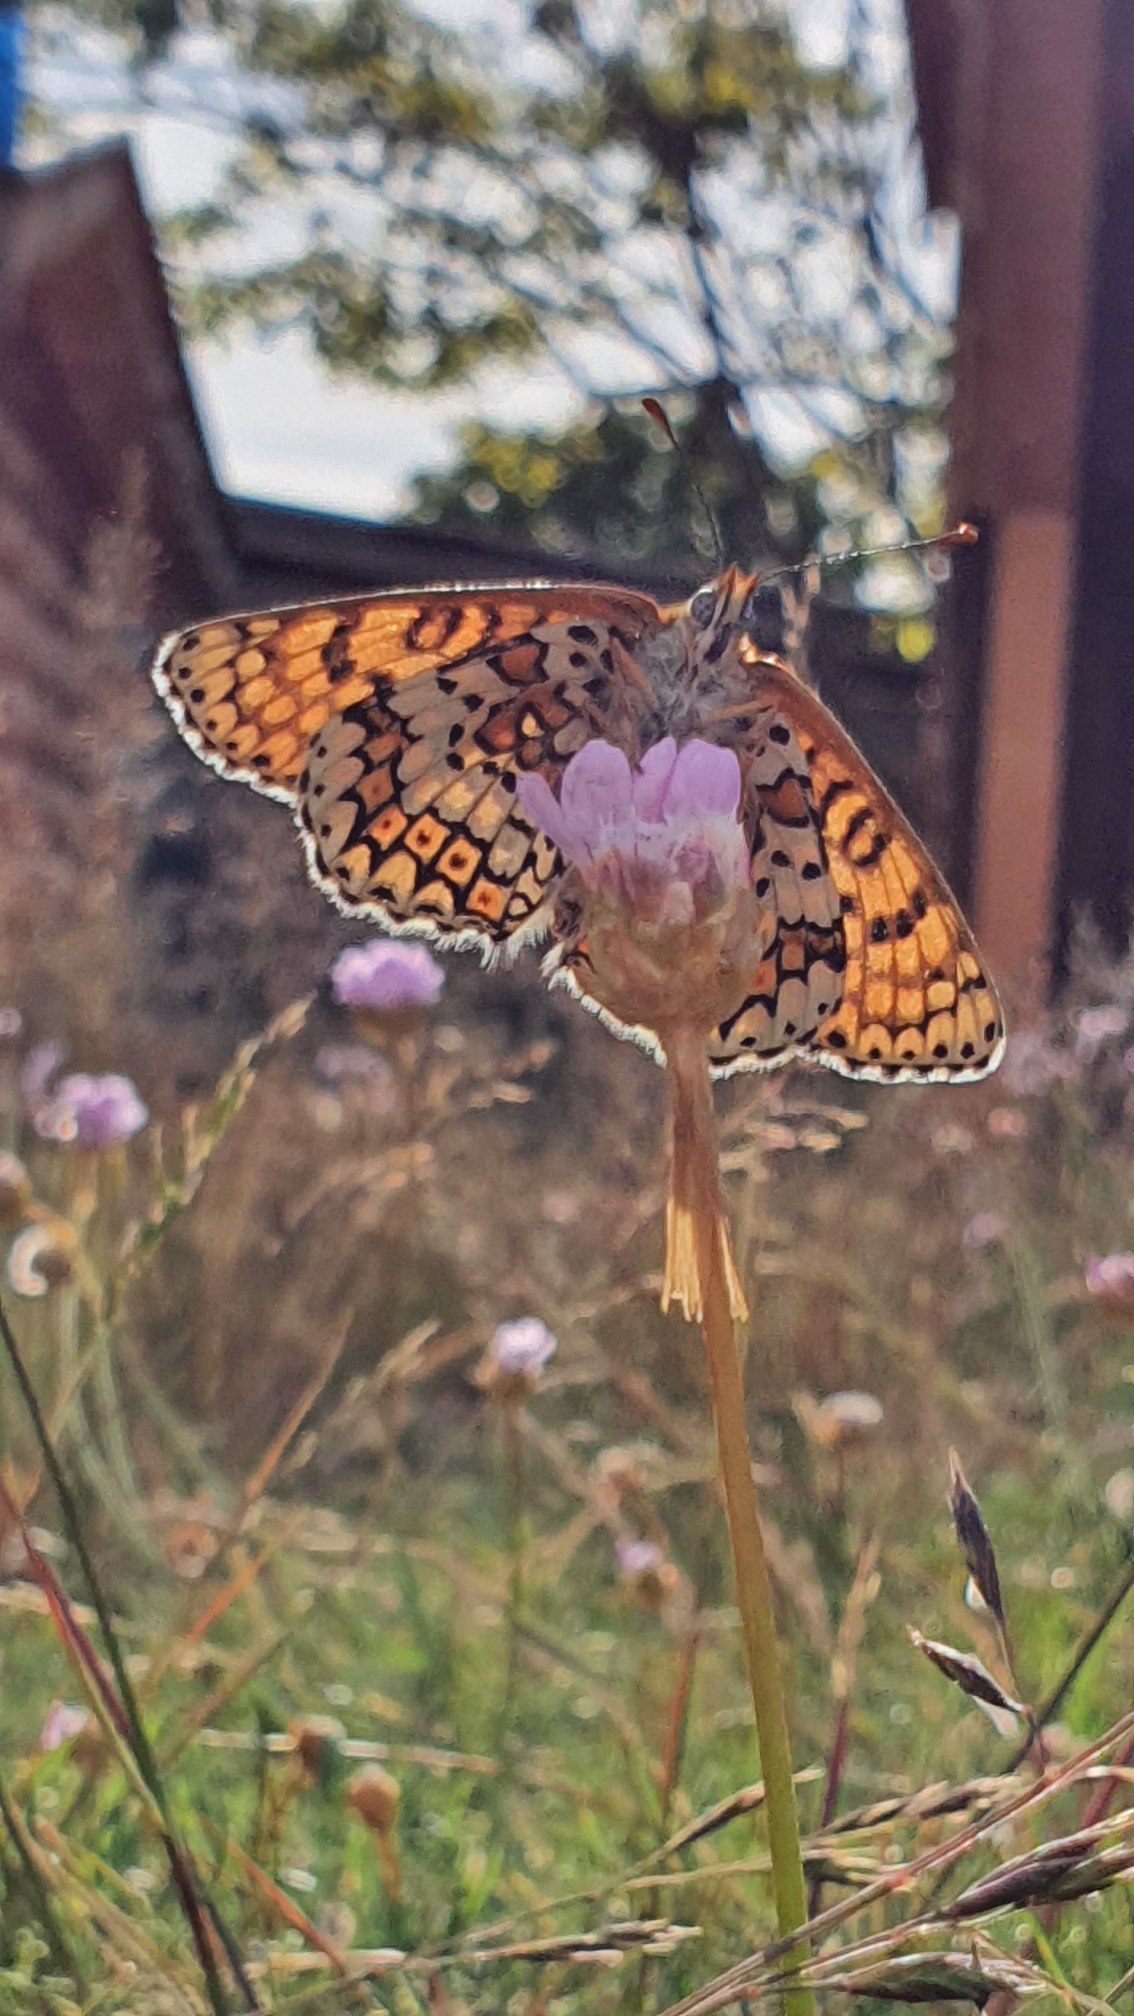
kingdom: Animalia
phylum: Arthropoda
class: Insecta
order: Lepidoptera
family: Nymphalidae
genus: Melitaea
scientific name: Melitaea cinxia
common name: Okkergul pletvinge
